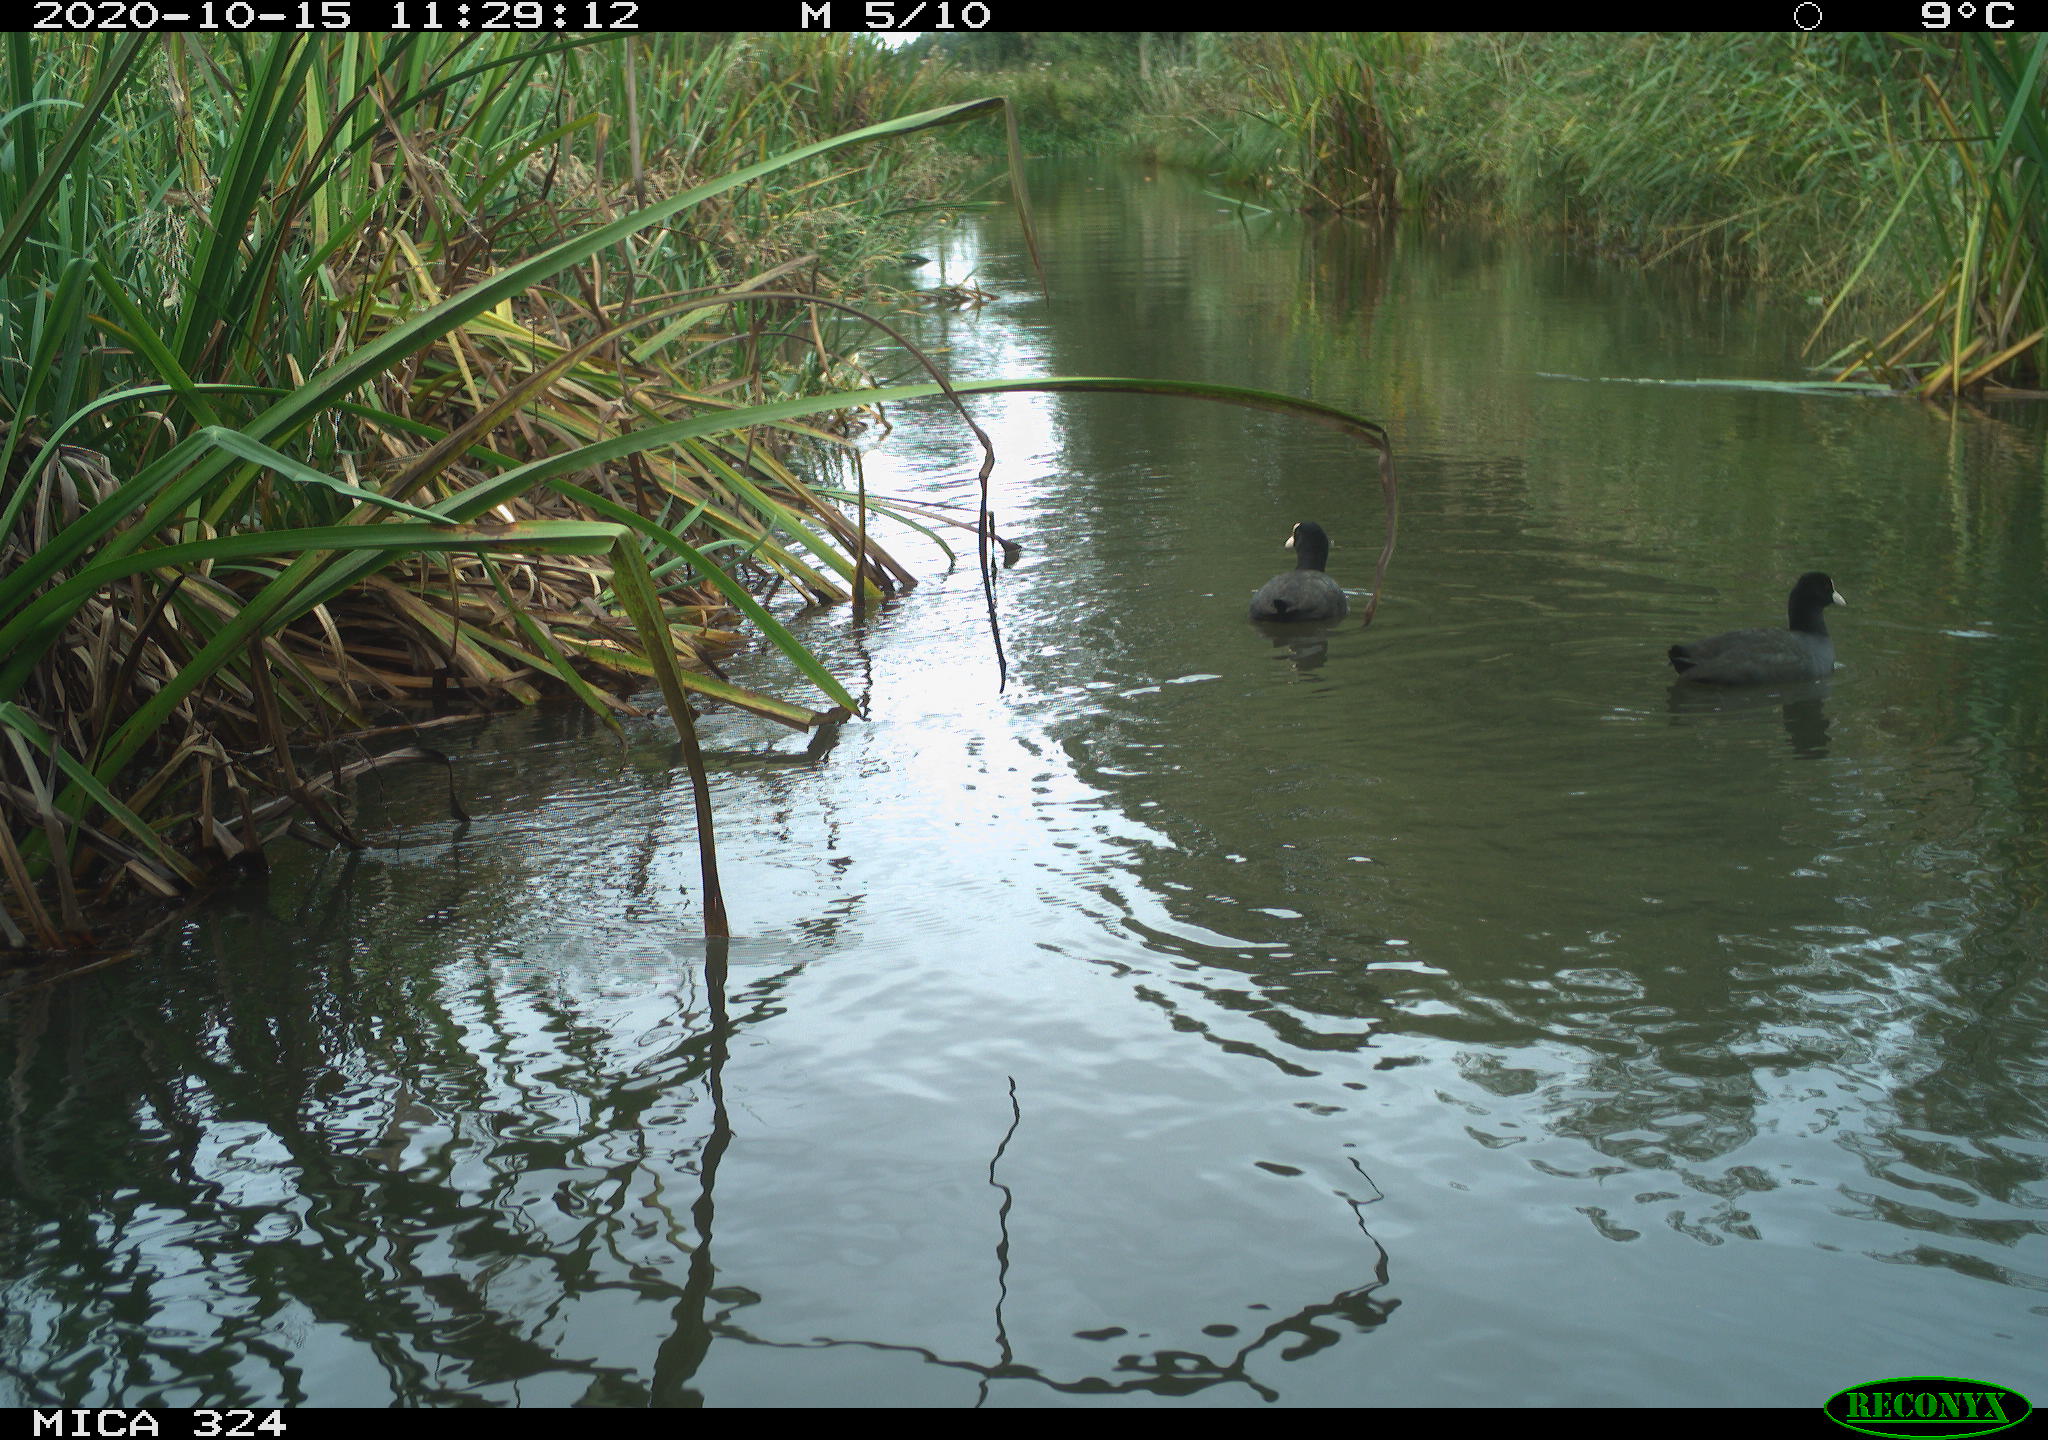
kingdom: Animalia
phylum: Chordata
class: Aves
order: Gruiformes
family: Rallidae
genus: Fulica
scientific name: Fulica atra
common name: Eurasian coot
